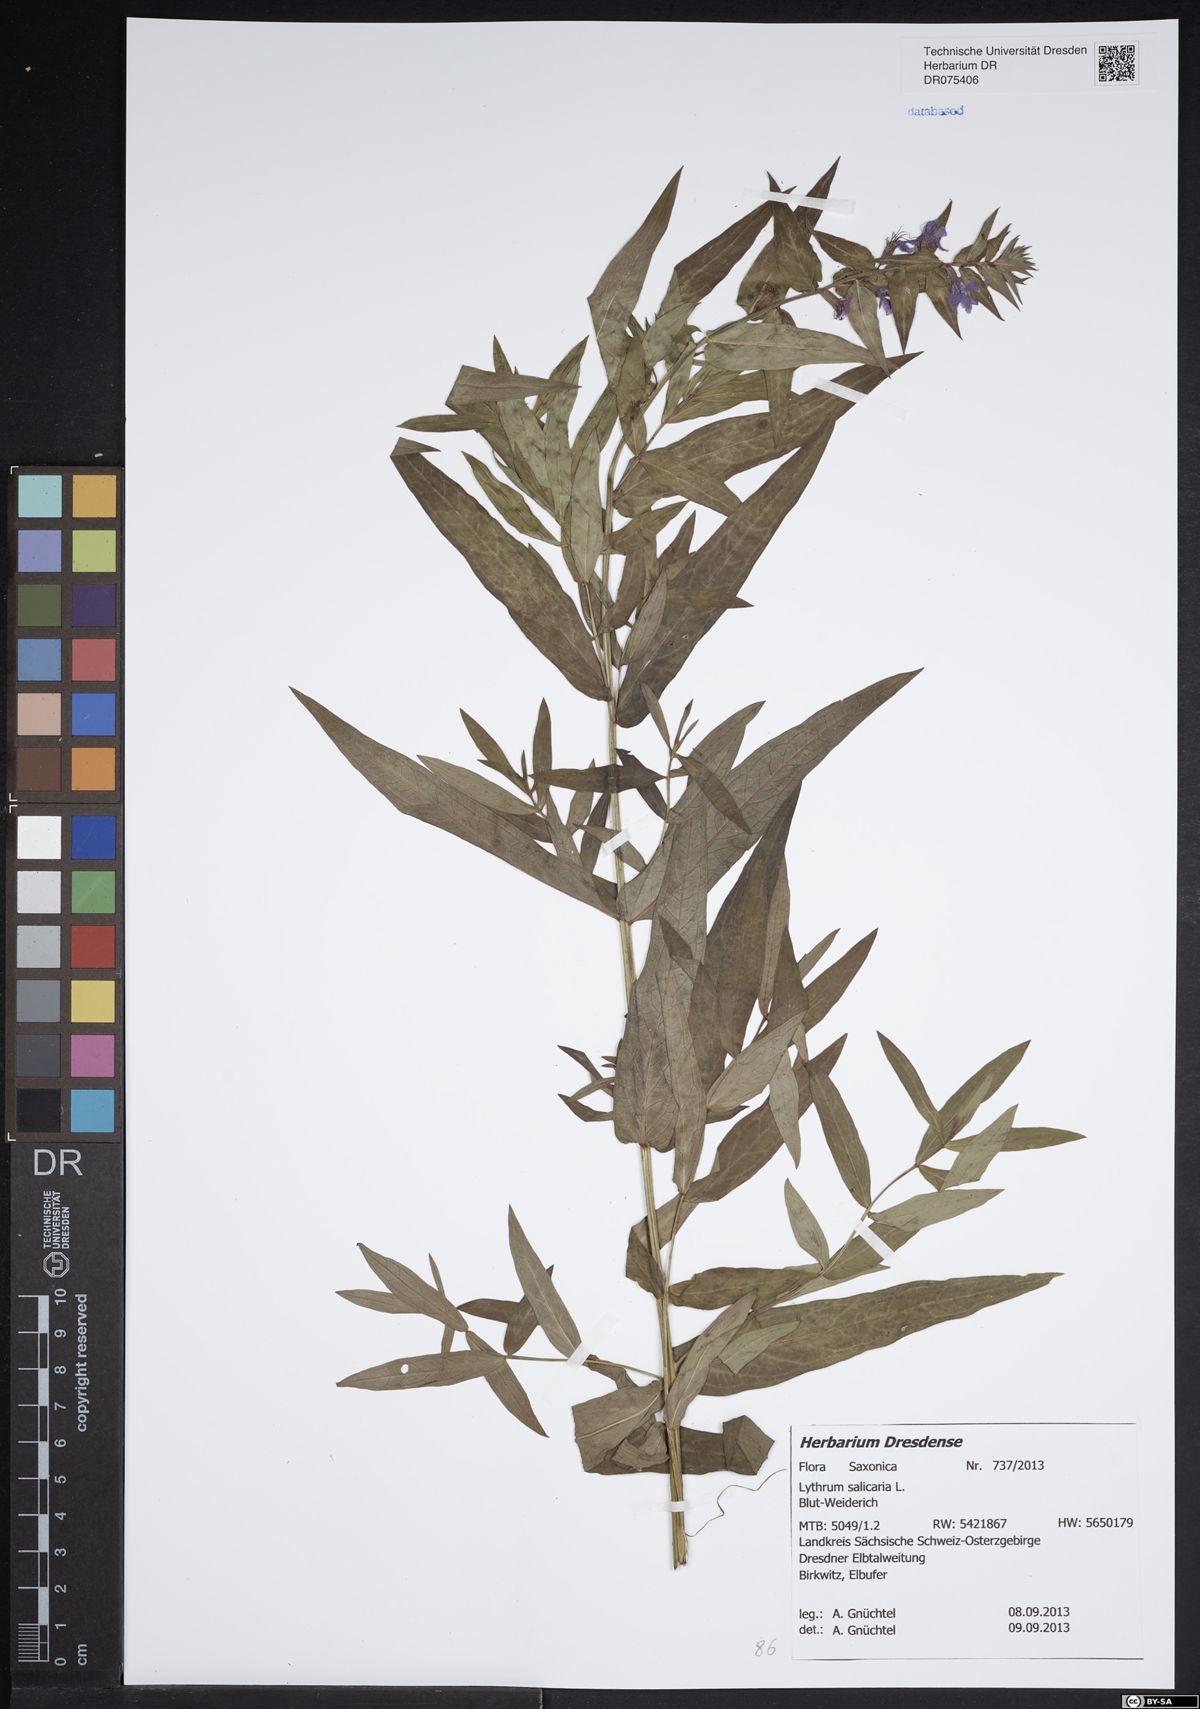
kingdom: Plantae
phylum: Tracheophyta
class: Magnoliopsida
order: Myrtales
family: Lythraceae
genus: Lythrum
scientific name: Lythrum salicaria
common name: Purple loosestrife
